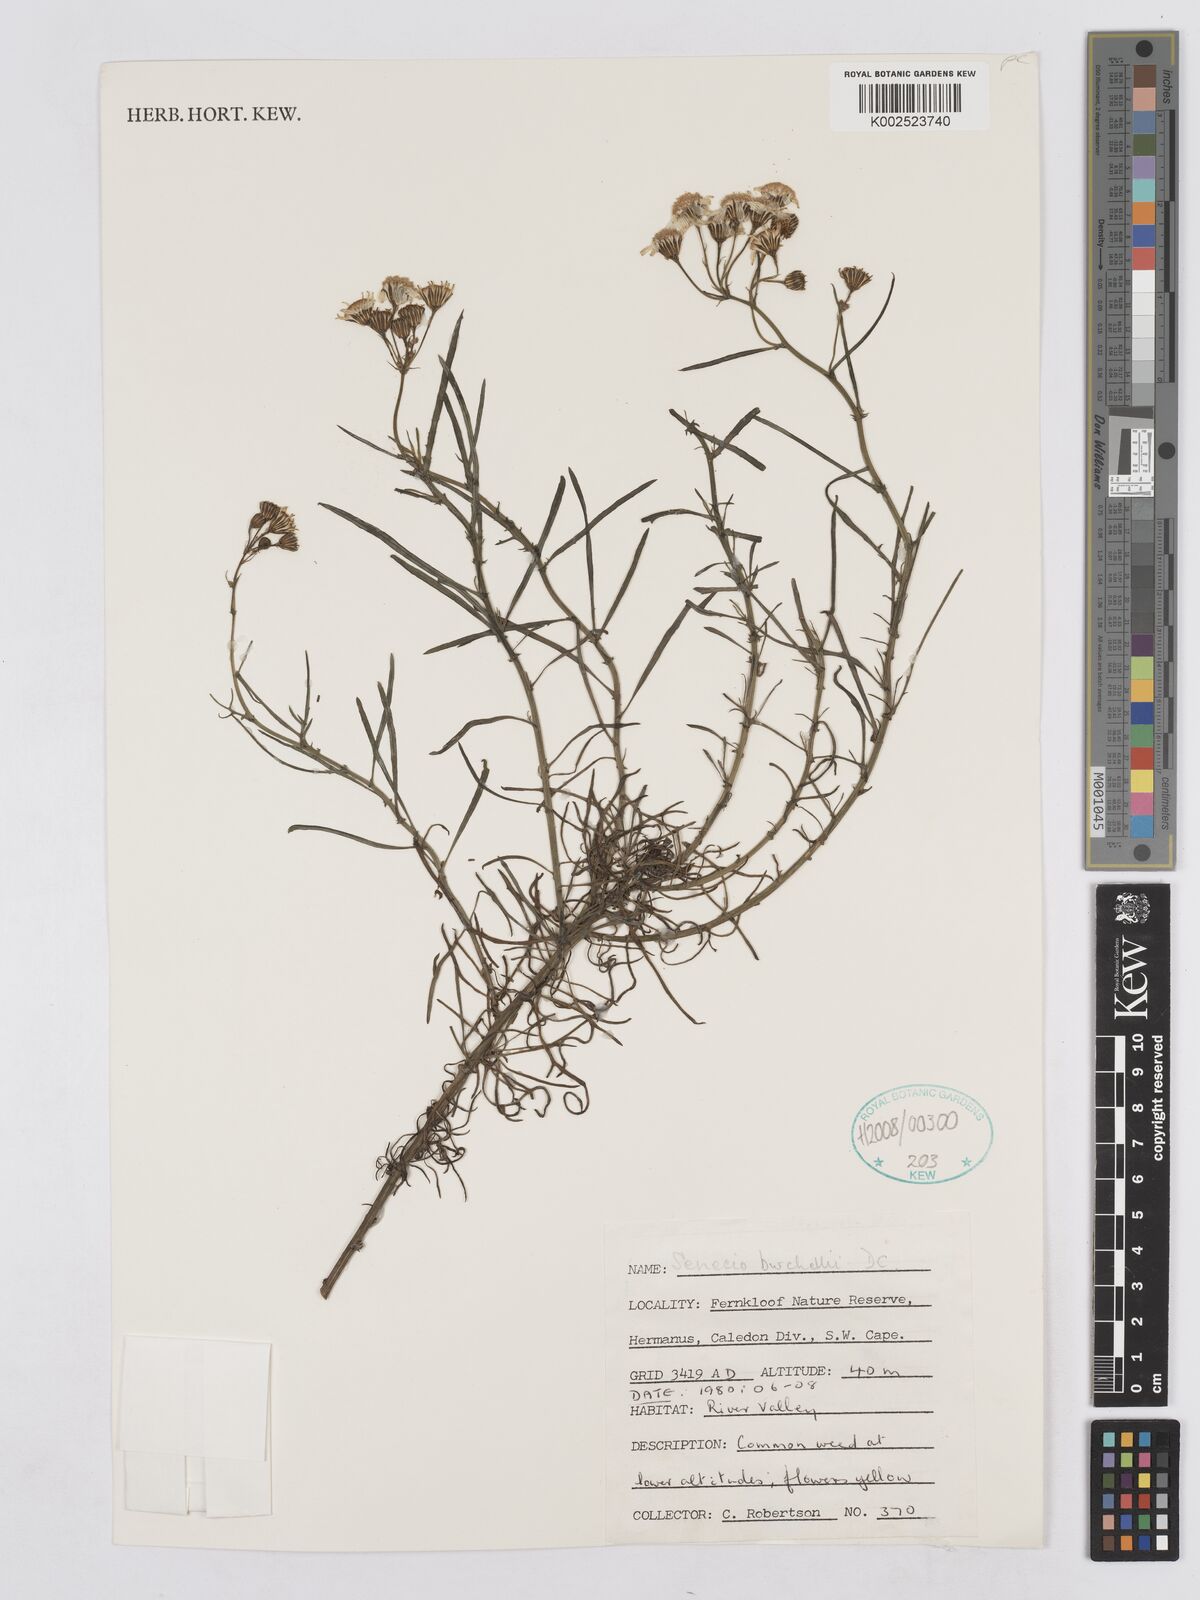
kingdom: Plantae
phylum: Tracheophyta
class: Magnoliopsida
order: Asterales
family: Asteraceae
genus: Senecio
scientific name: Senecio burchellii
